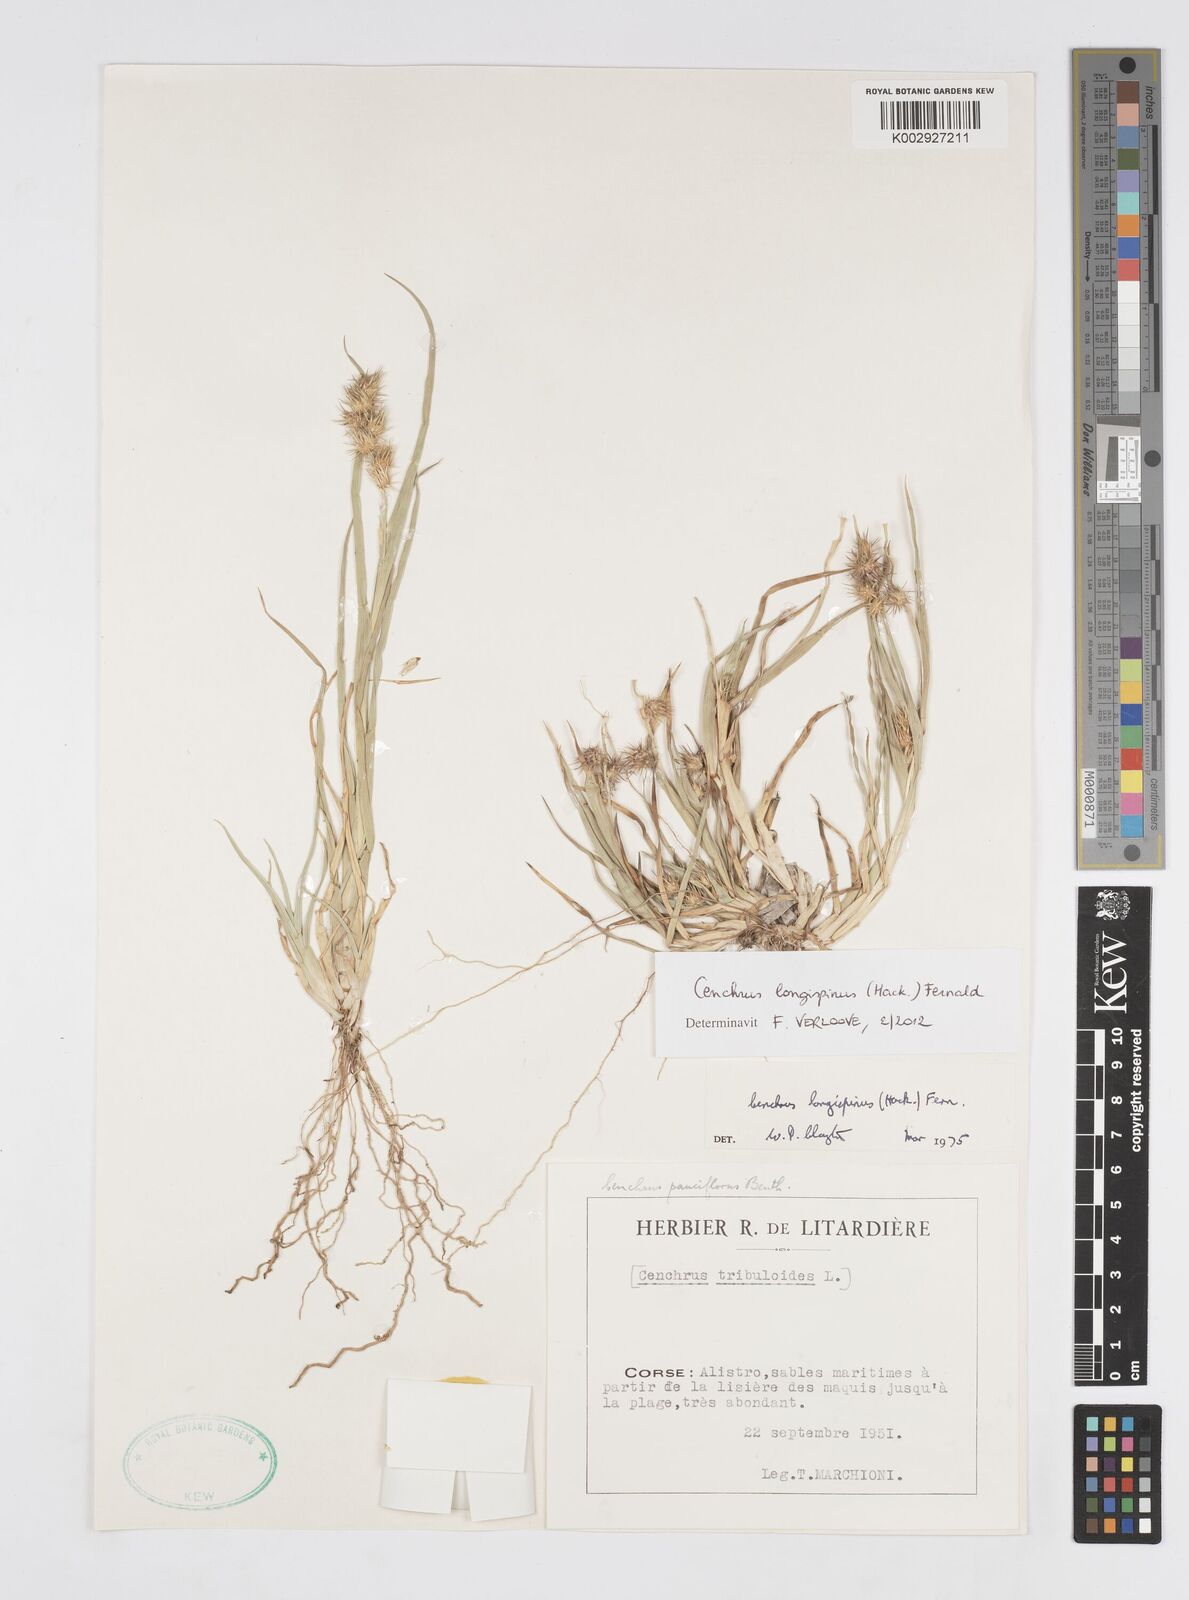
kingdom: Plantae
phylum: Tracheophyta
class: Liliopsida
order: Poales
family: Poaceae
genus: Cenchrus
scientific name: Cenchrus longispinus
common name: Mat sandbur
